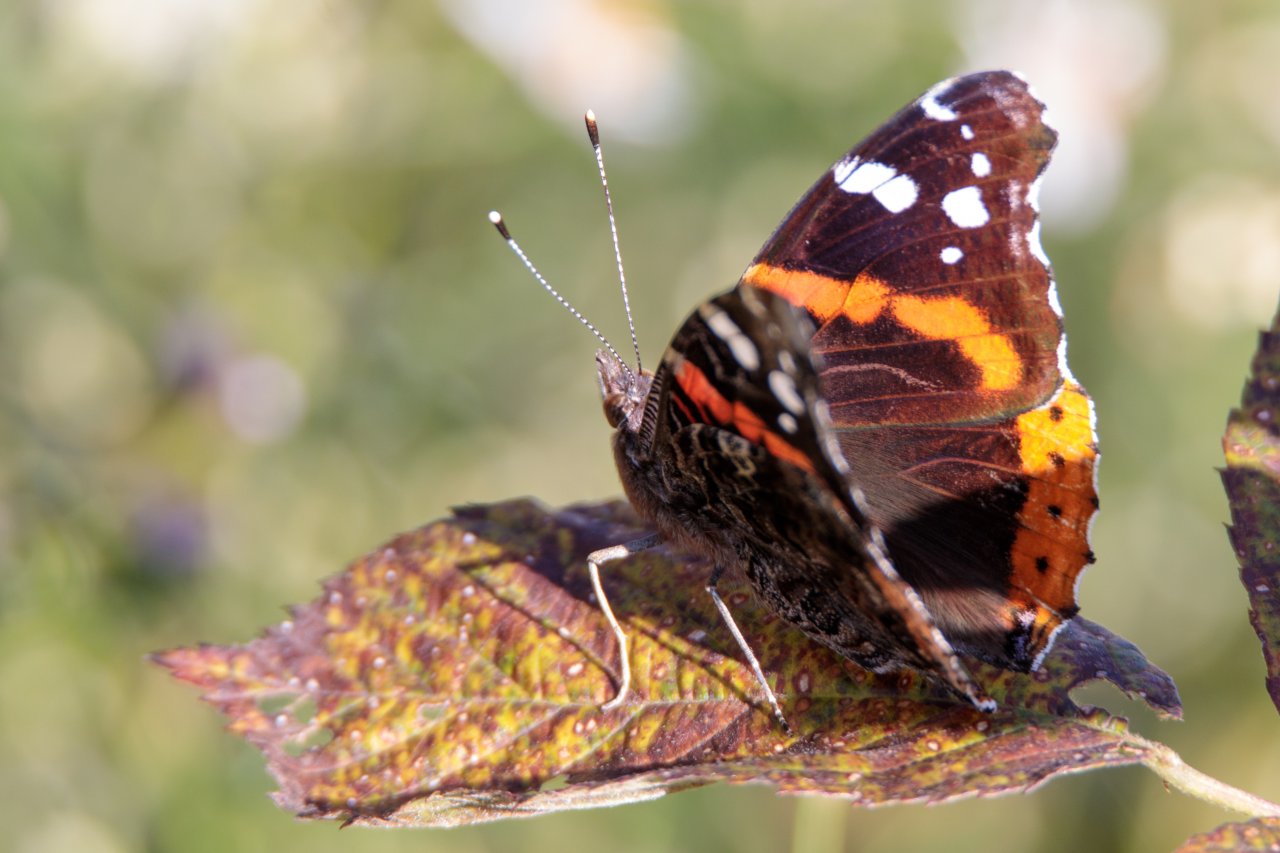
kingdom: Animalia
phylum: Arthropoda
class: Insecta
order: Lepidoptera
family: Nymphalidae
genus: Vanessa
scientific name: Vanessa atalanta
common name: Red Admiral
